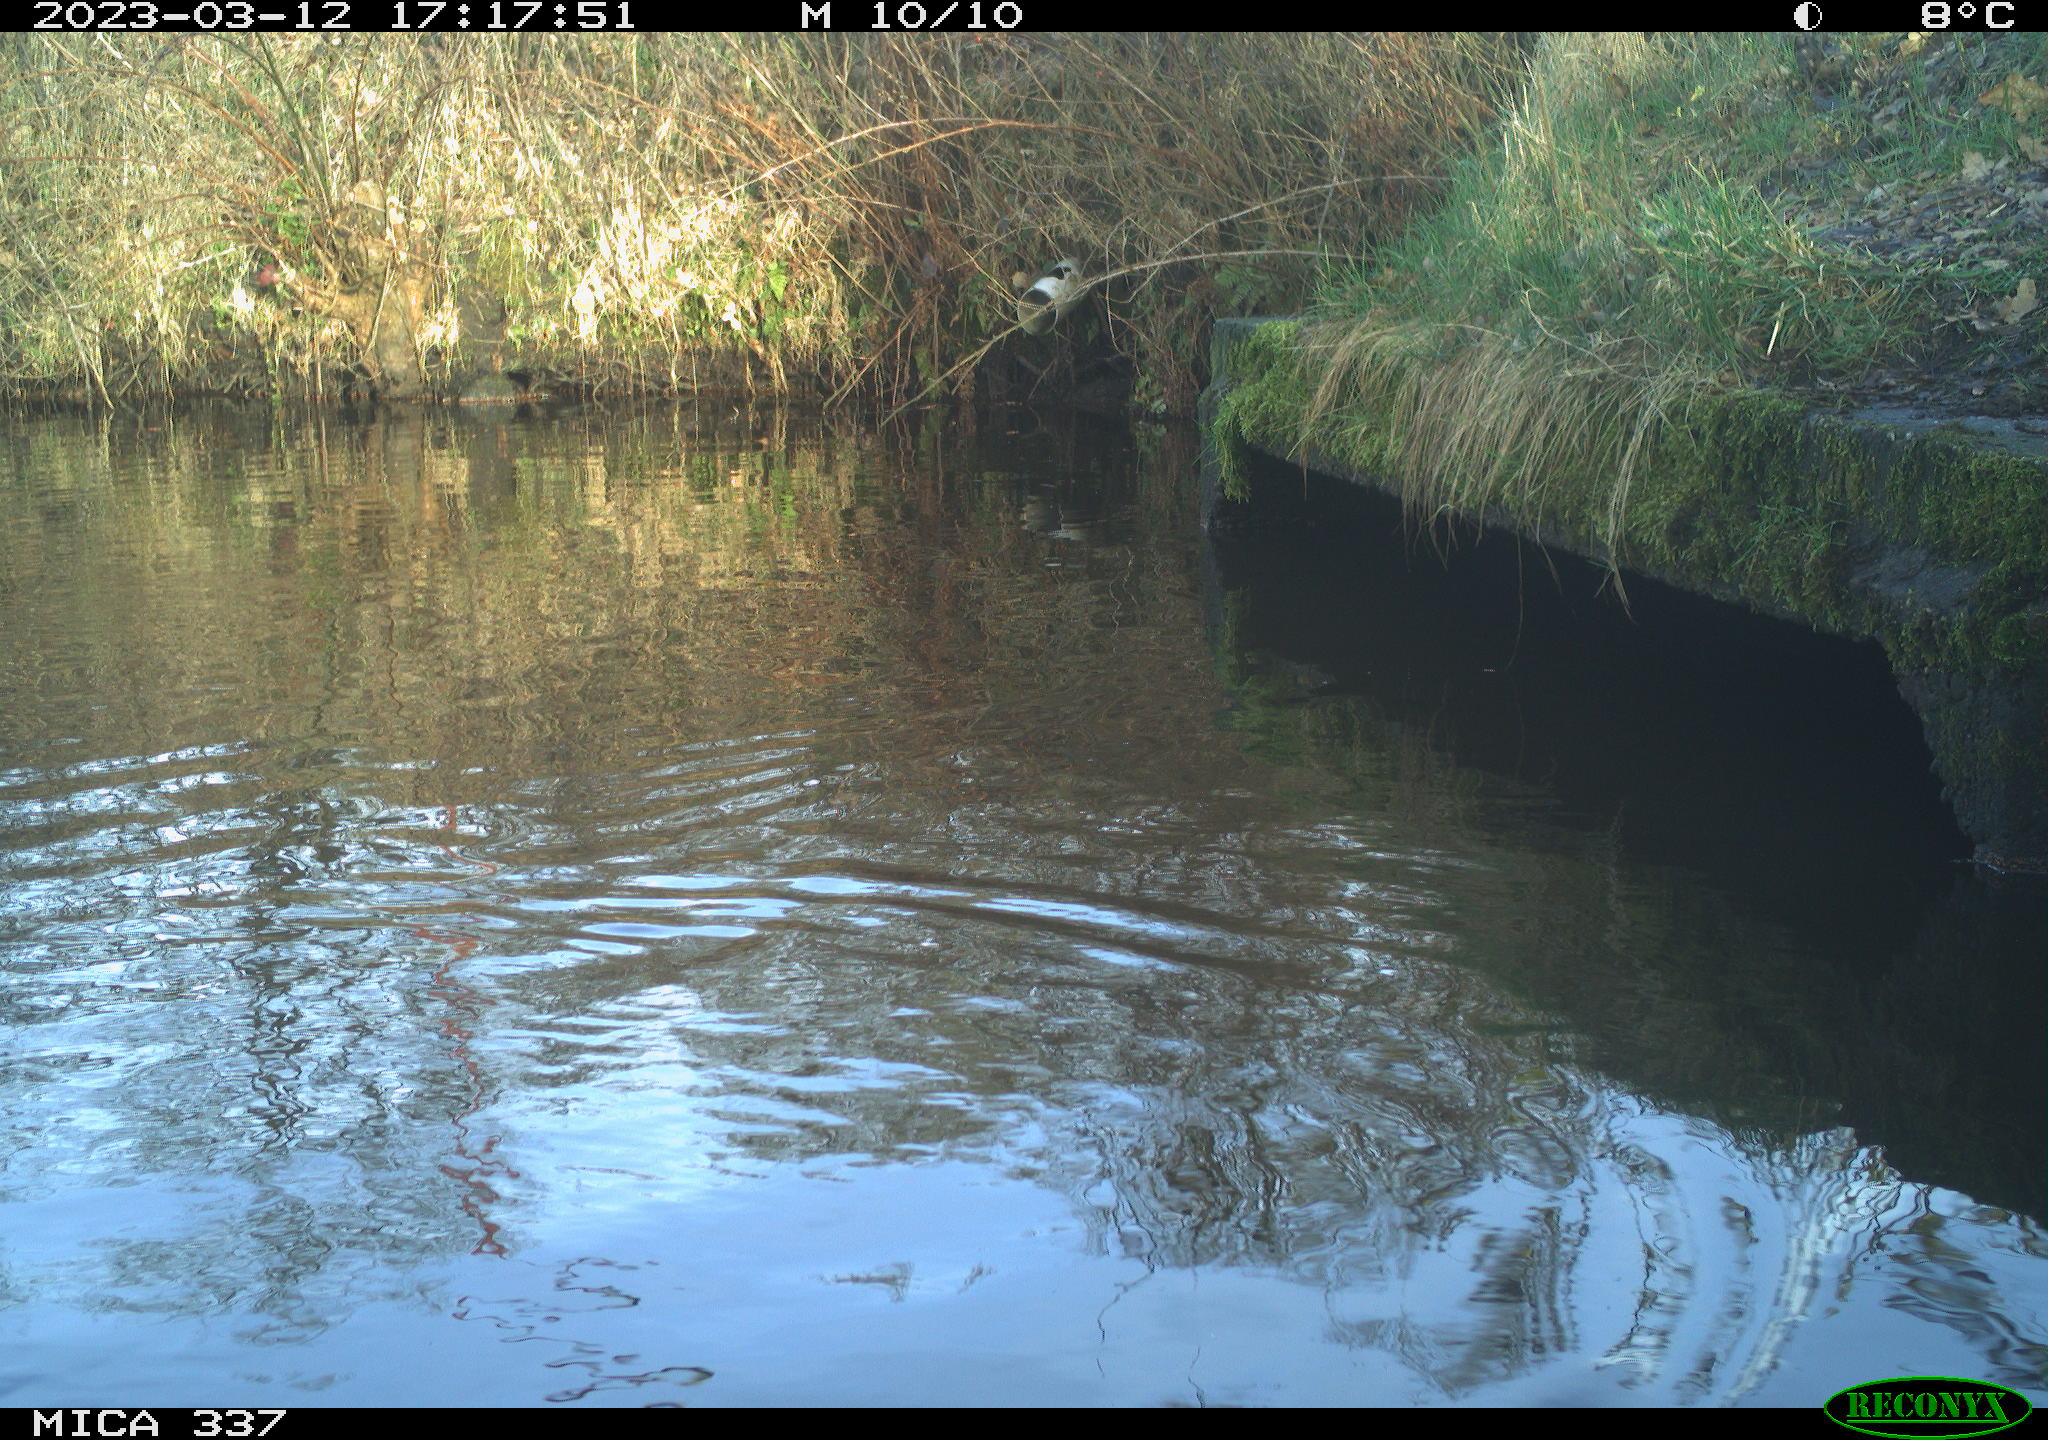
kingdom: Animalia
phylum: Chordata
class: Aves
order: Anseriformes
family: Anatidae
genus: Anas
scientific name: Anas
